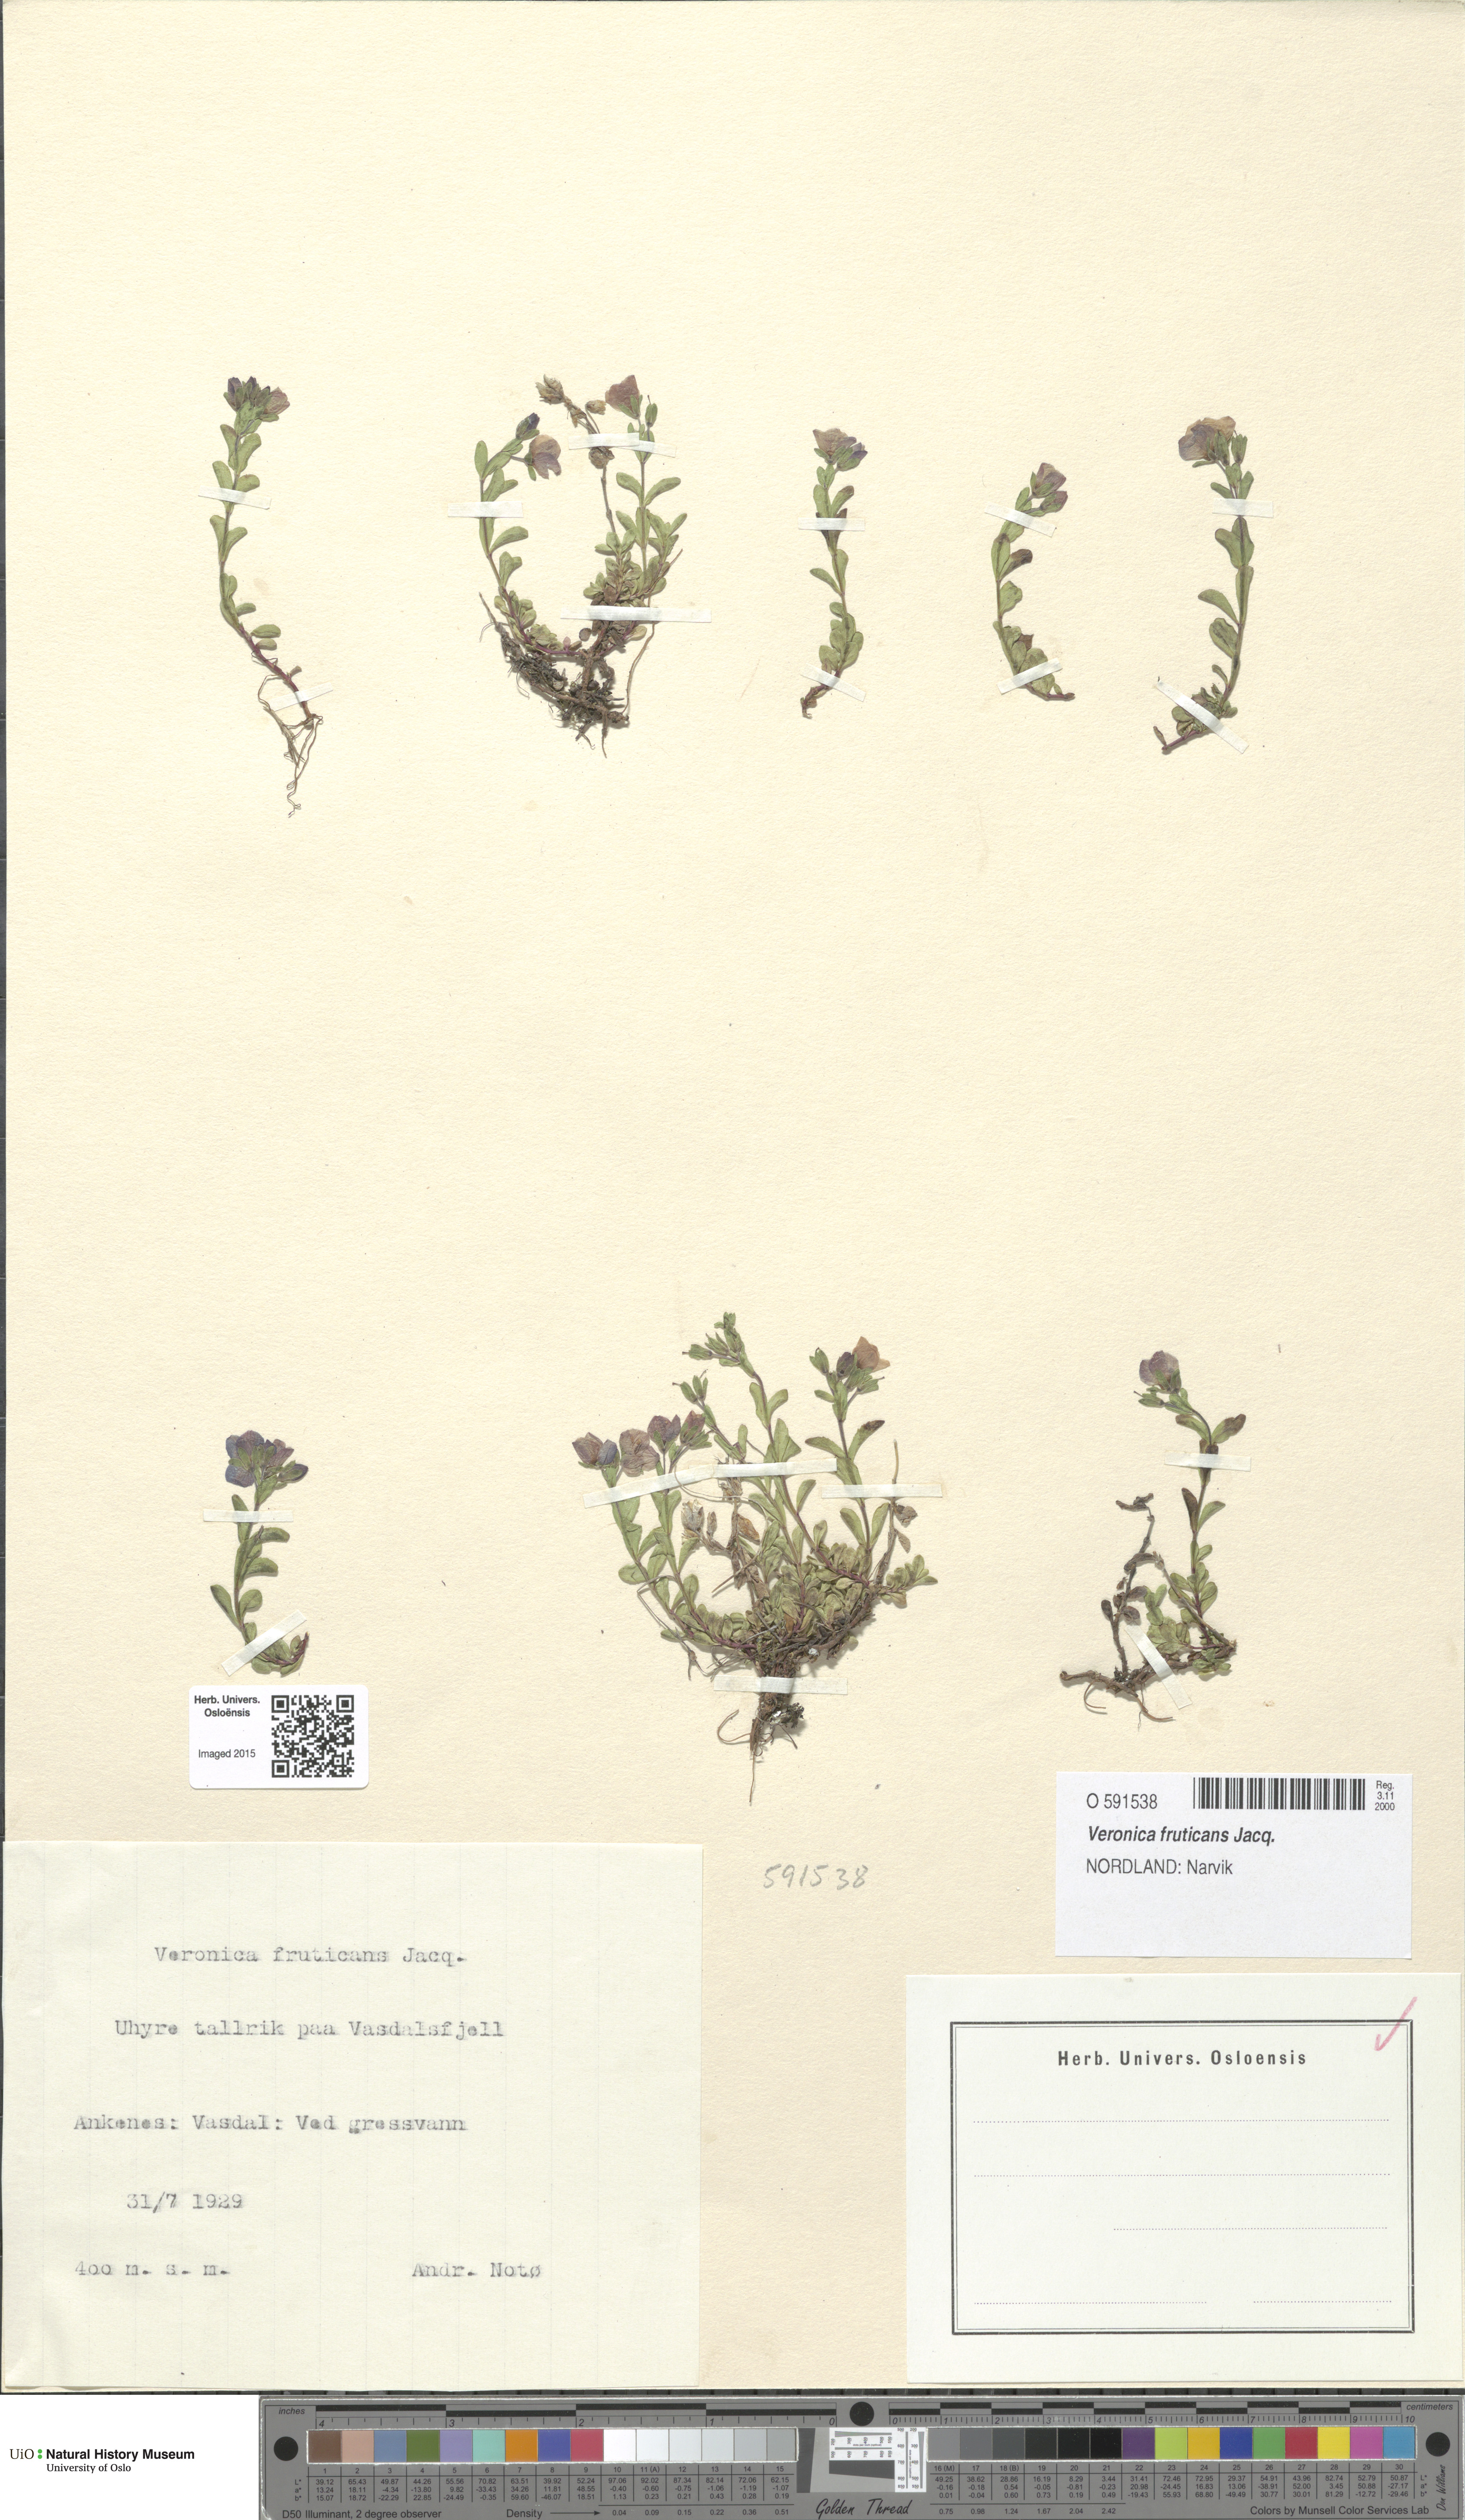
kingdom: Plantae
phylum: Tracheophyta
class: Magnoliopsida
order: Lamiales
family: Plantaginaceae
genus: Veronica
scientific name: Veronica fruticans
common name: Rock speedwell
